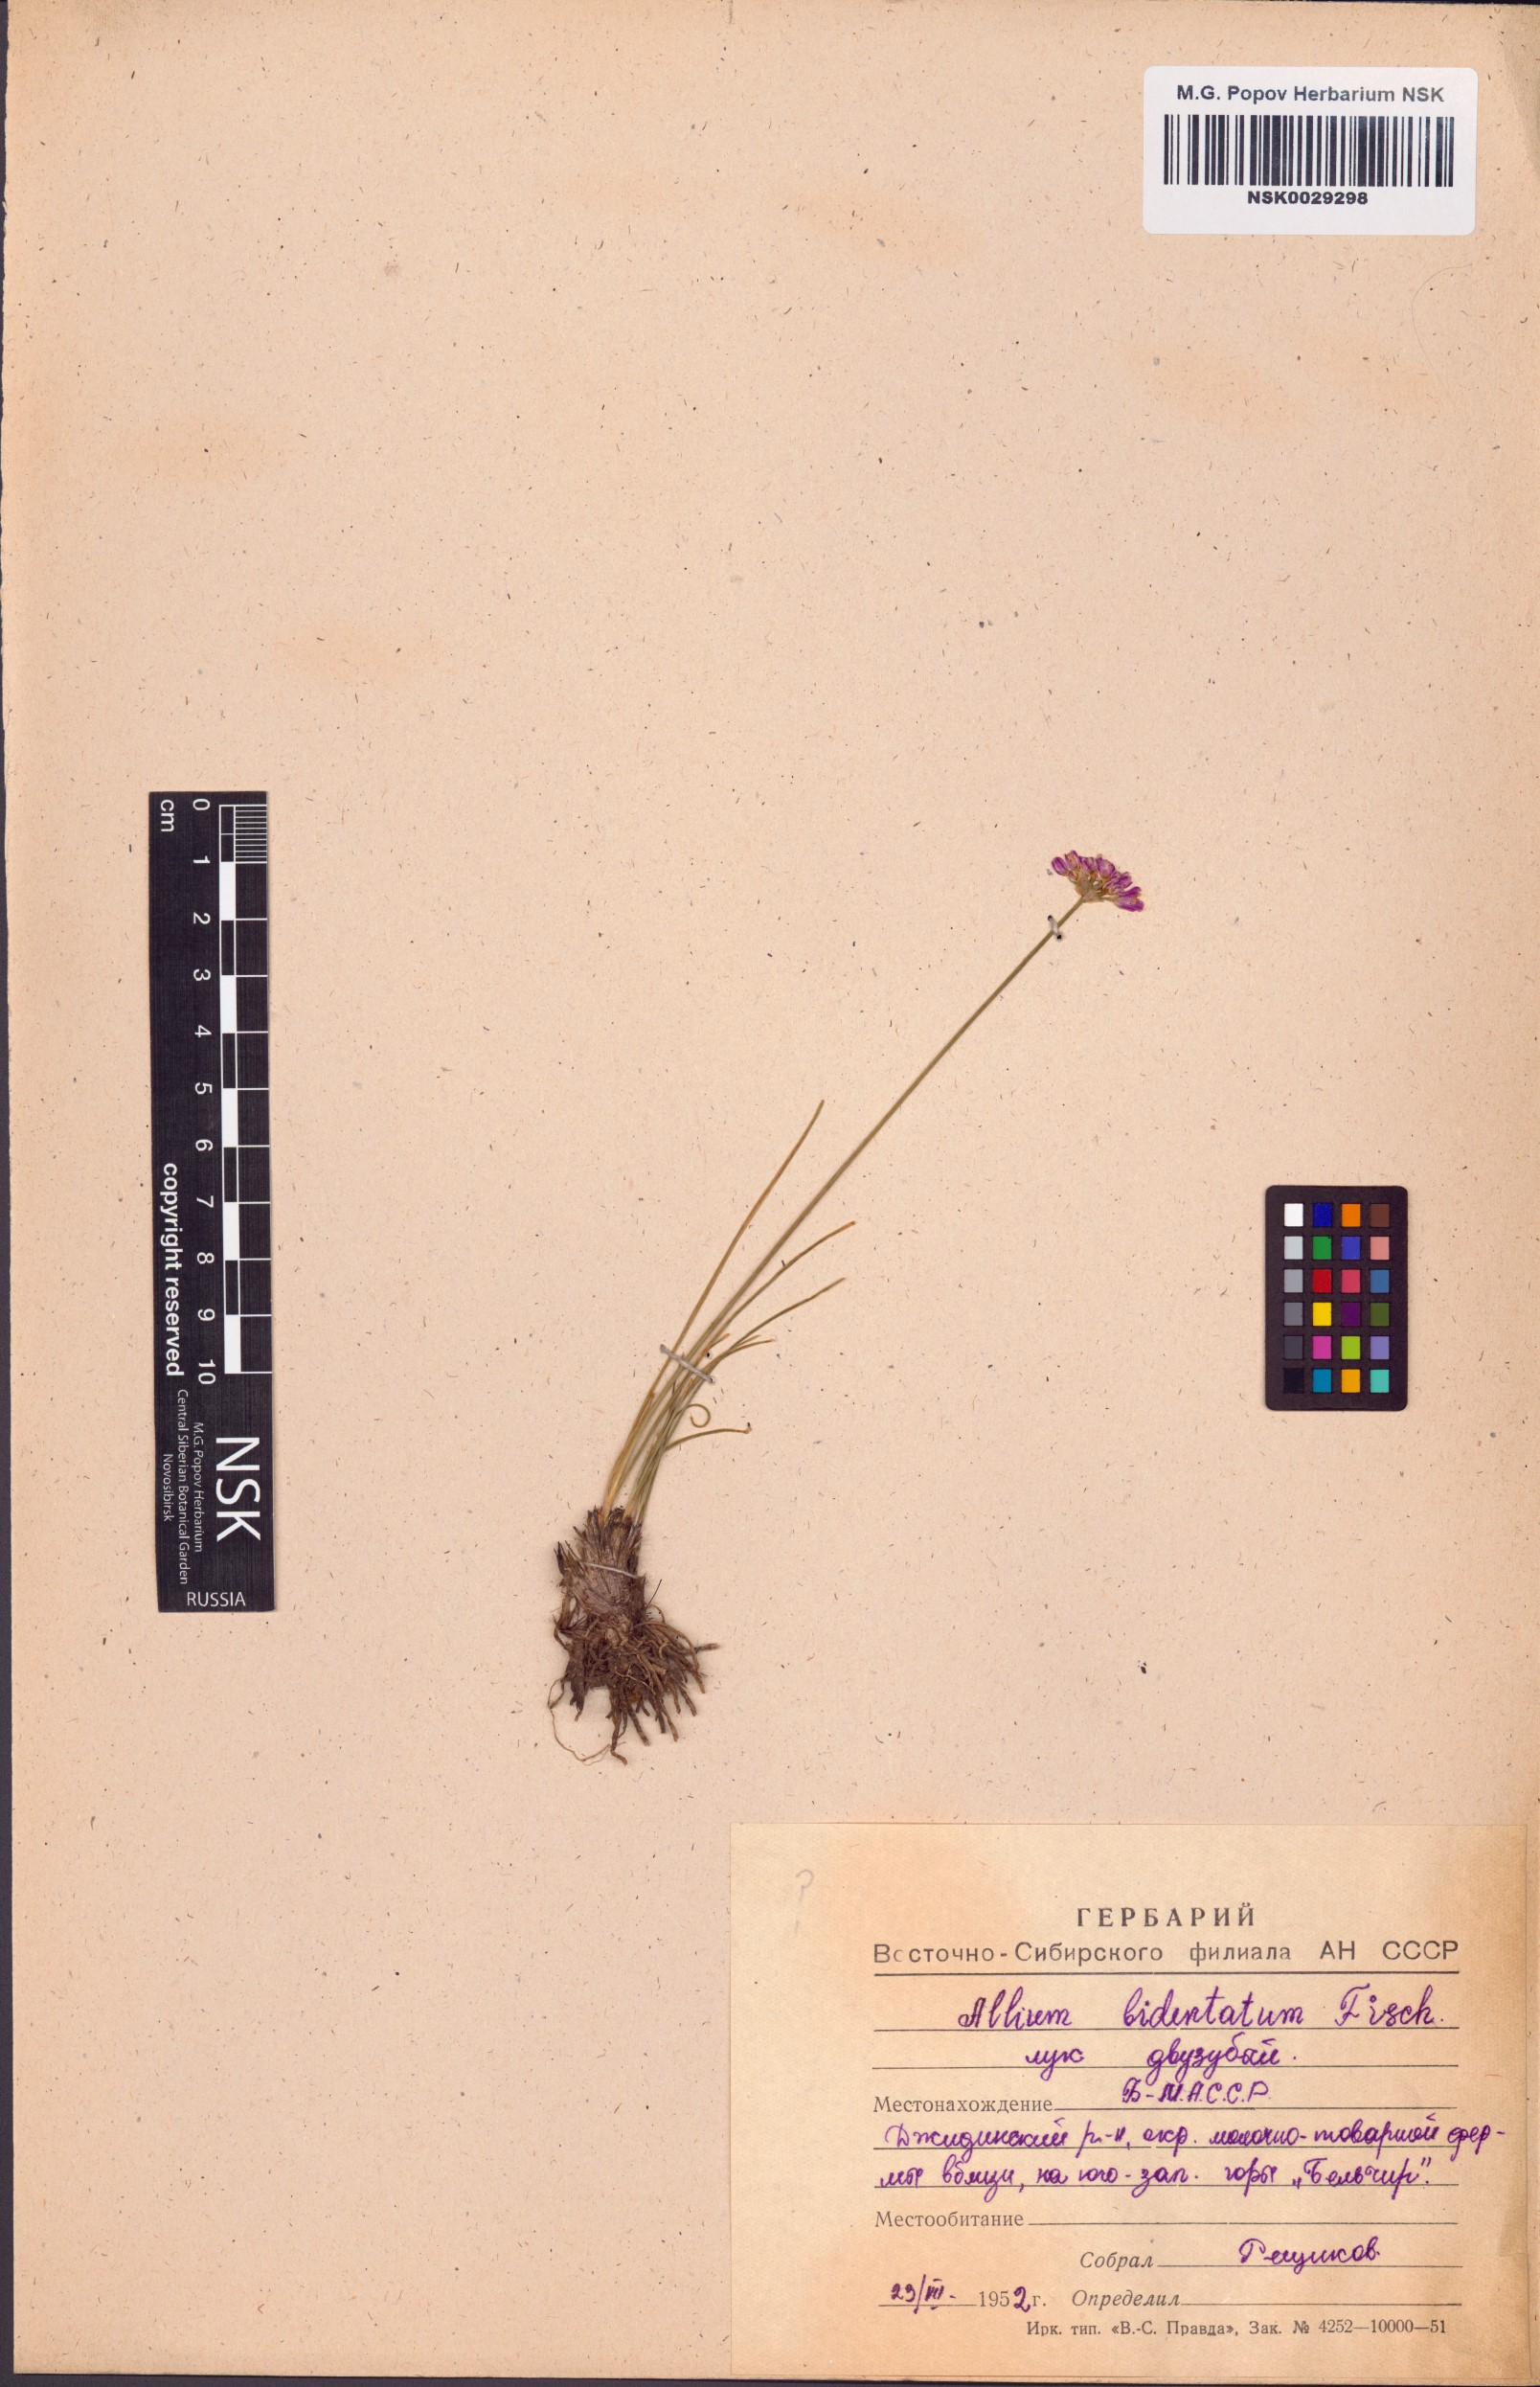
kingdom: Plantae
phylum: Tracheophyta
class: Liliopsida
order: Asparagales
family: Amaryllidaceae
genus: Allium
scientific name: Allium bidentatum
